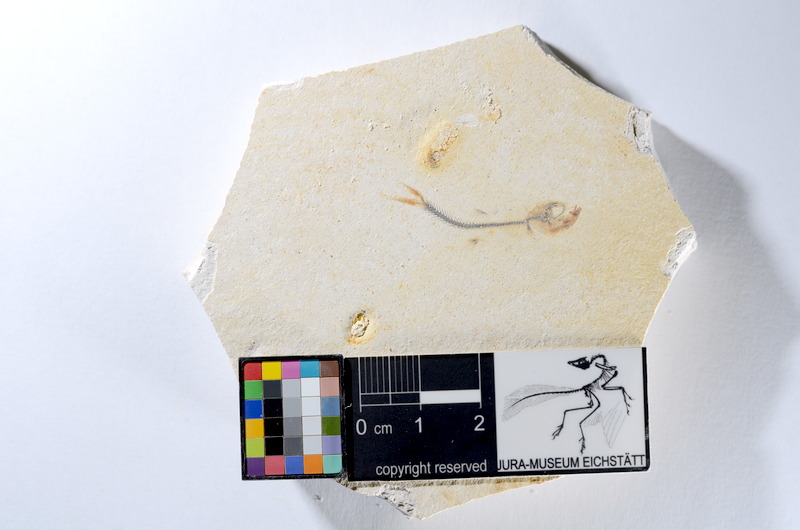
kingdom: Animalia
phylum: Chordata
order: Salmoniformes
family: Orthogonikleithridae
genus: Orthogonikleithrus
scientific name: Orthogonikleithrus hoelli
